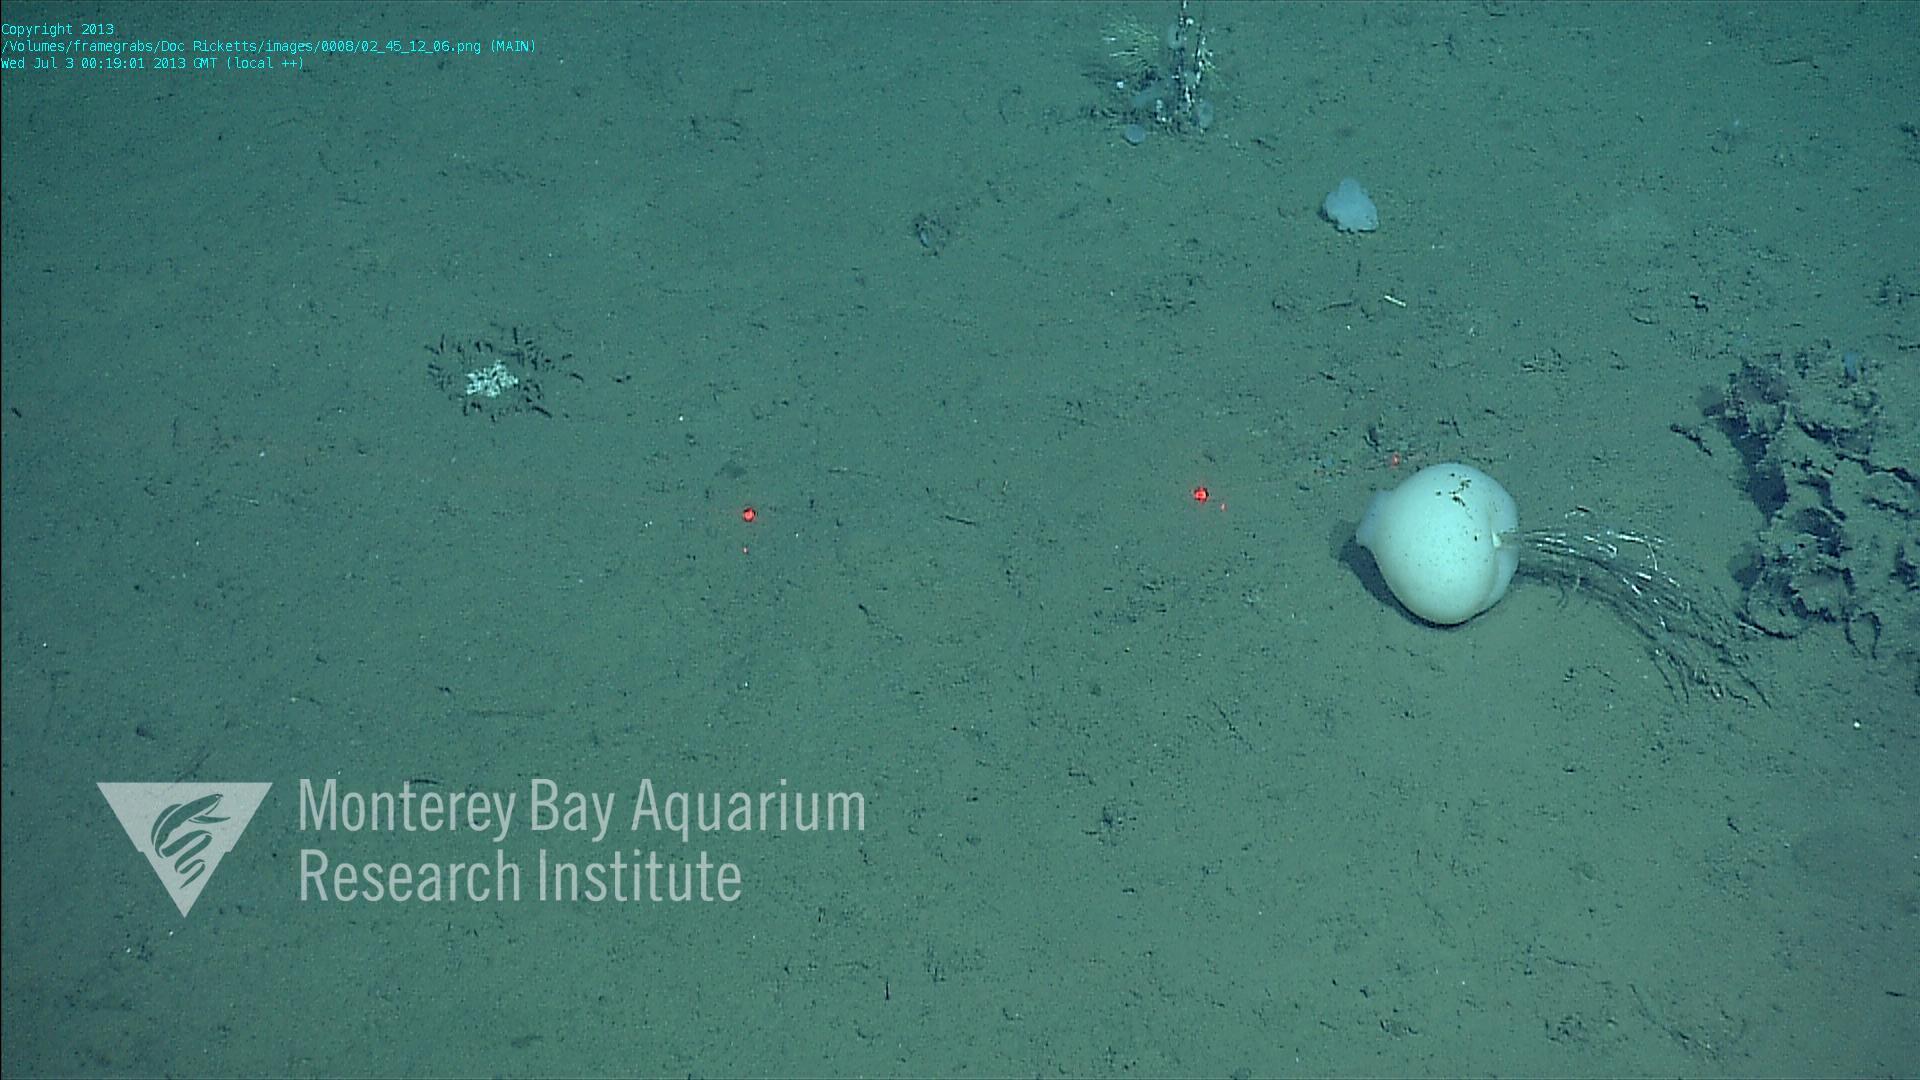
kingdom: Animalia
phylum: Porifera
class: Hexactinellida
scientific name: Hexactinellida
